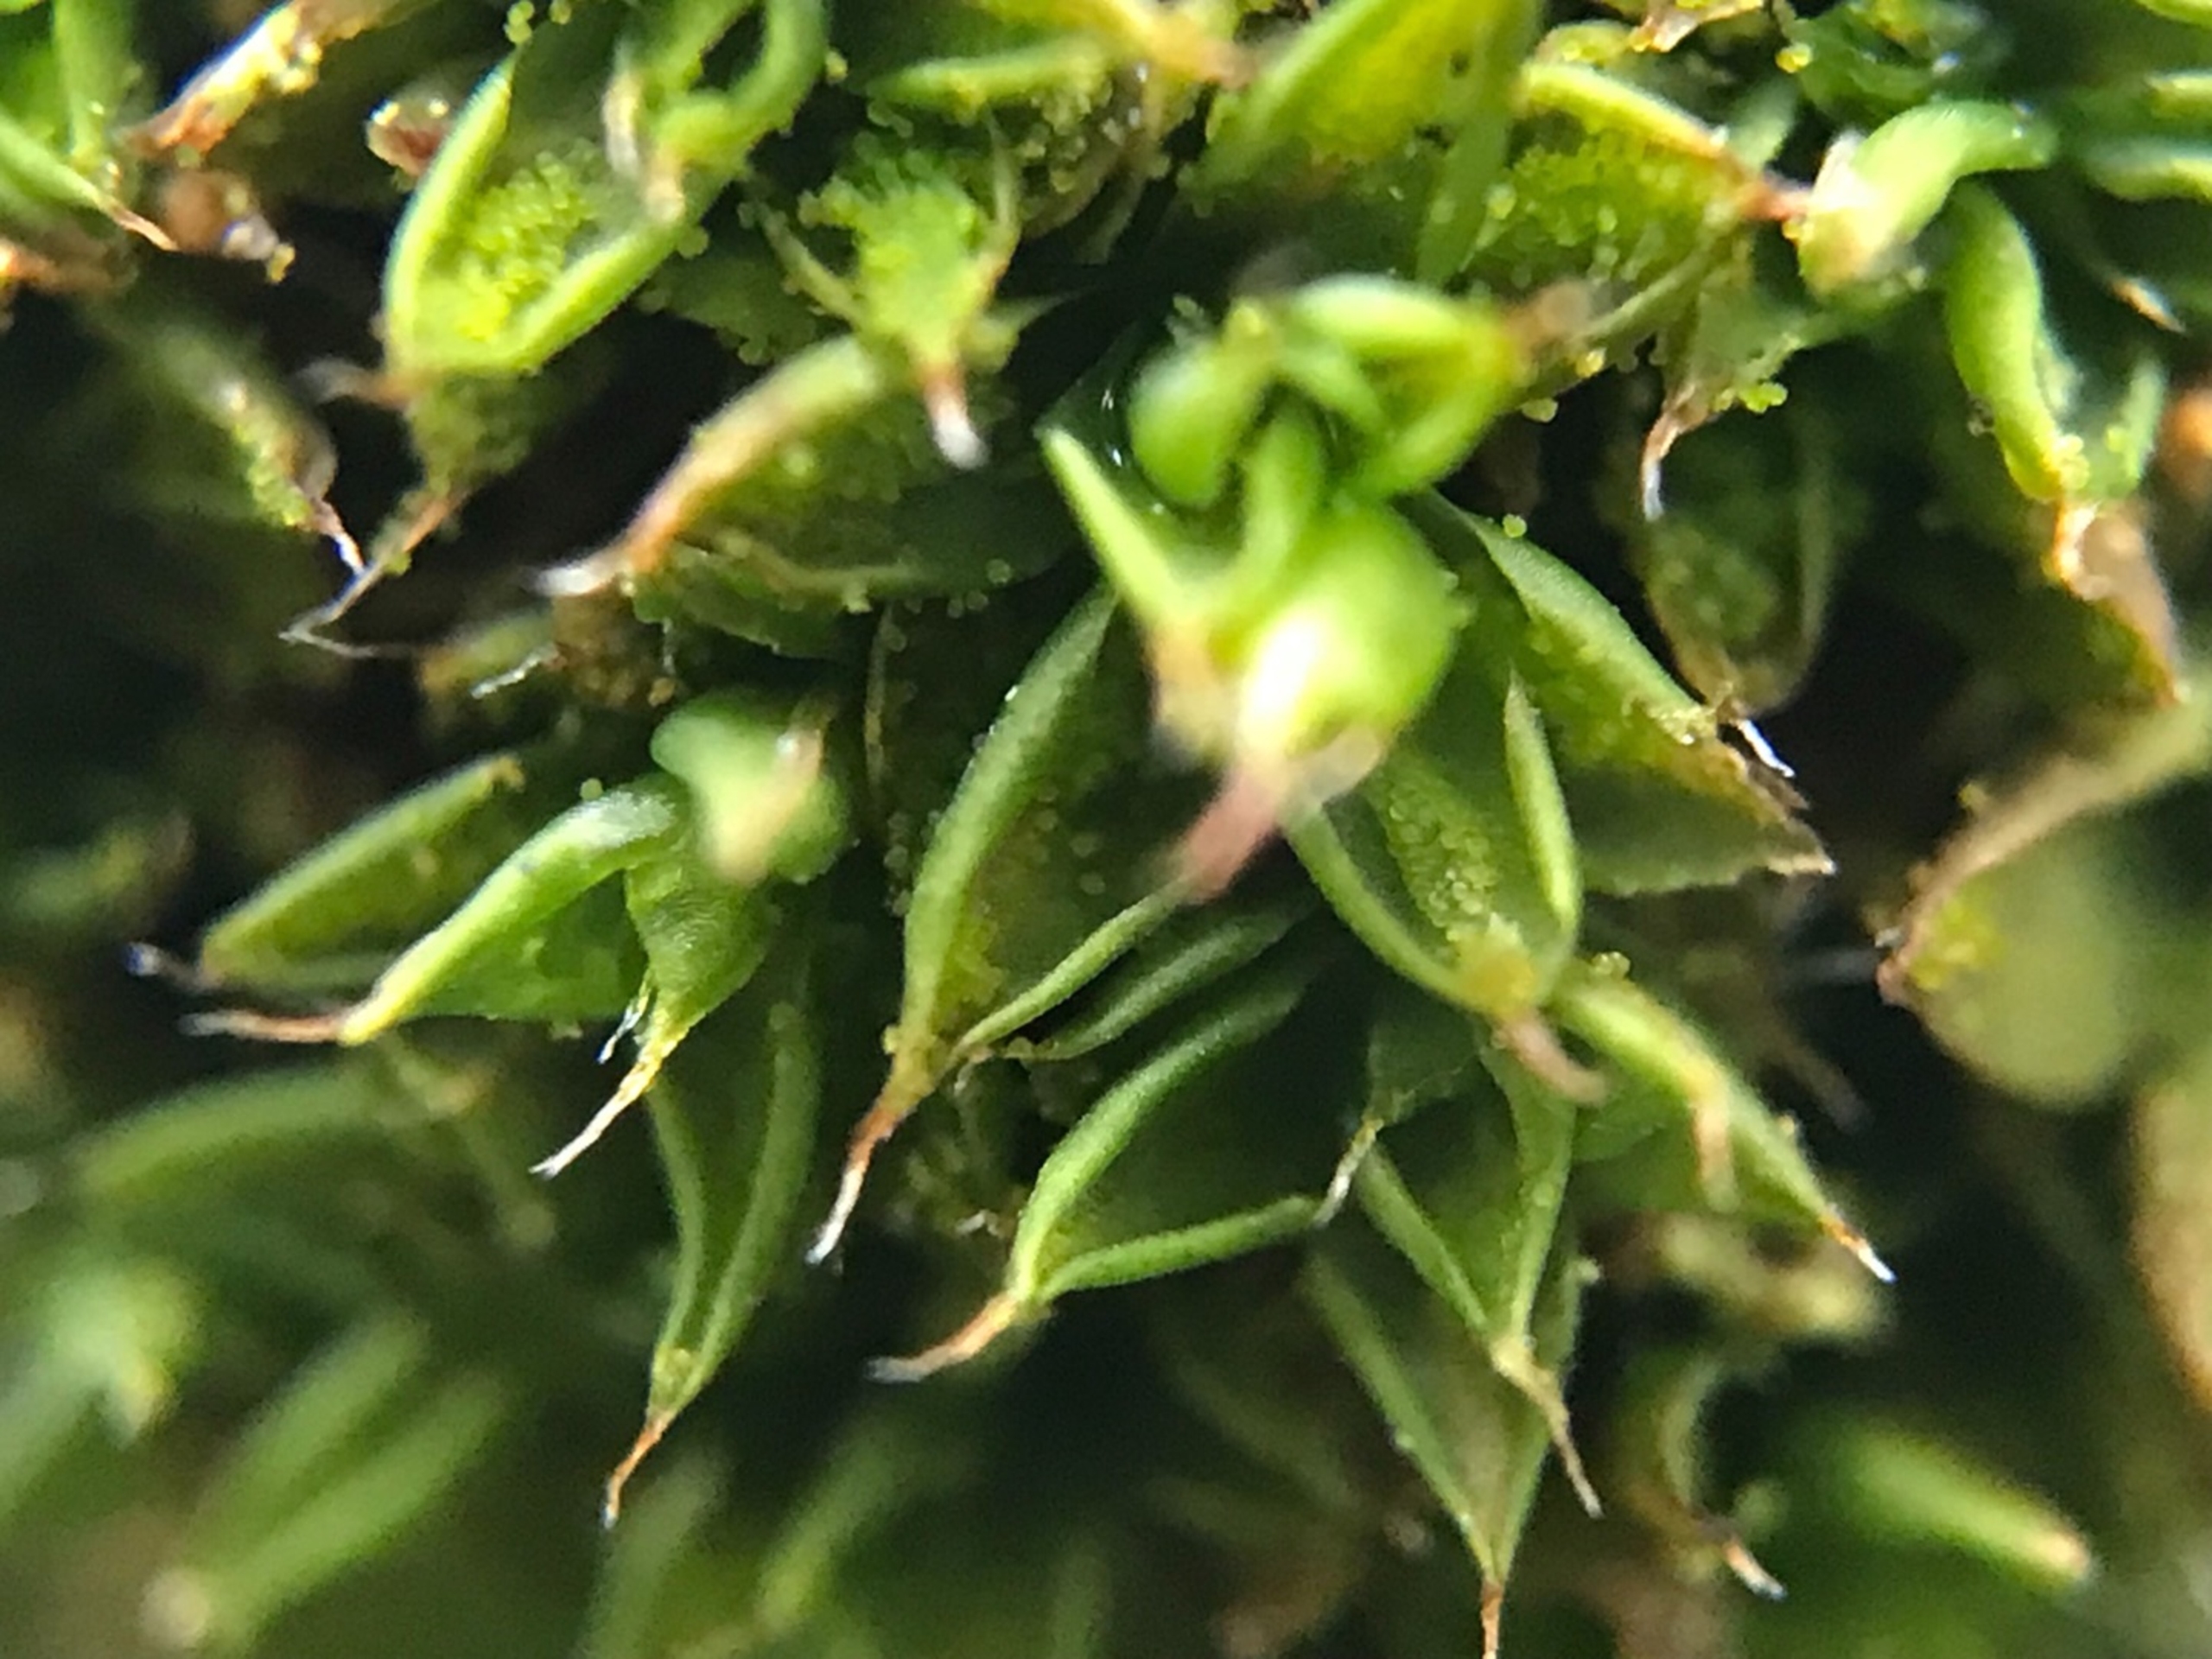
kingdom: Plantae
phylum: Bryophyta
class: Bryopsida
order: Pottiales
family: Pottiaceae
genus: Syntrichia
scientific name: Syntrichia papillosa
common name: Bark-hårstjerne
